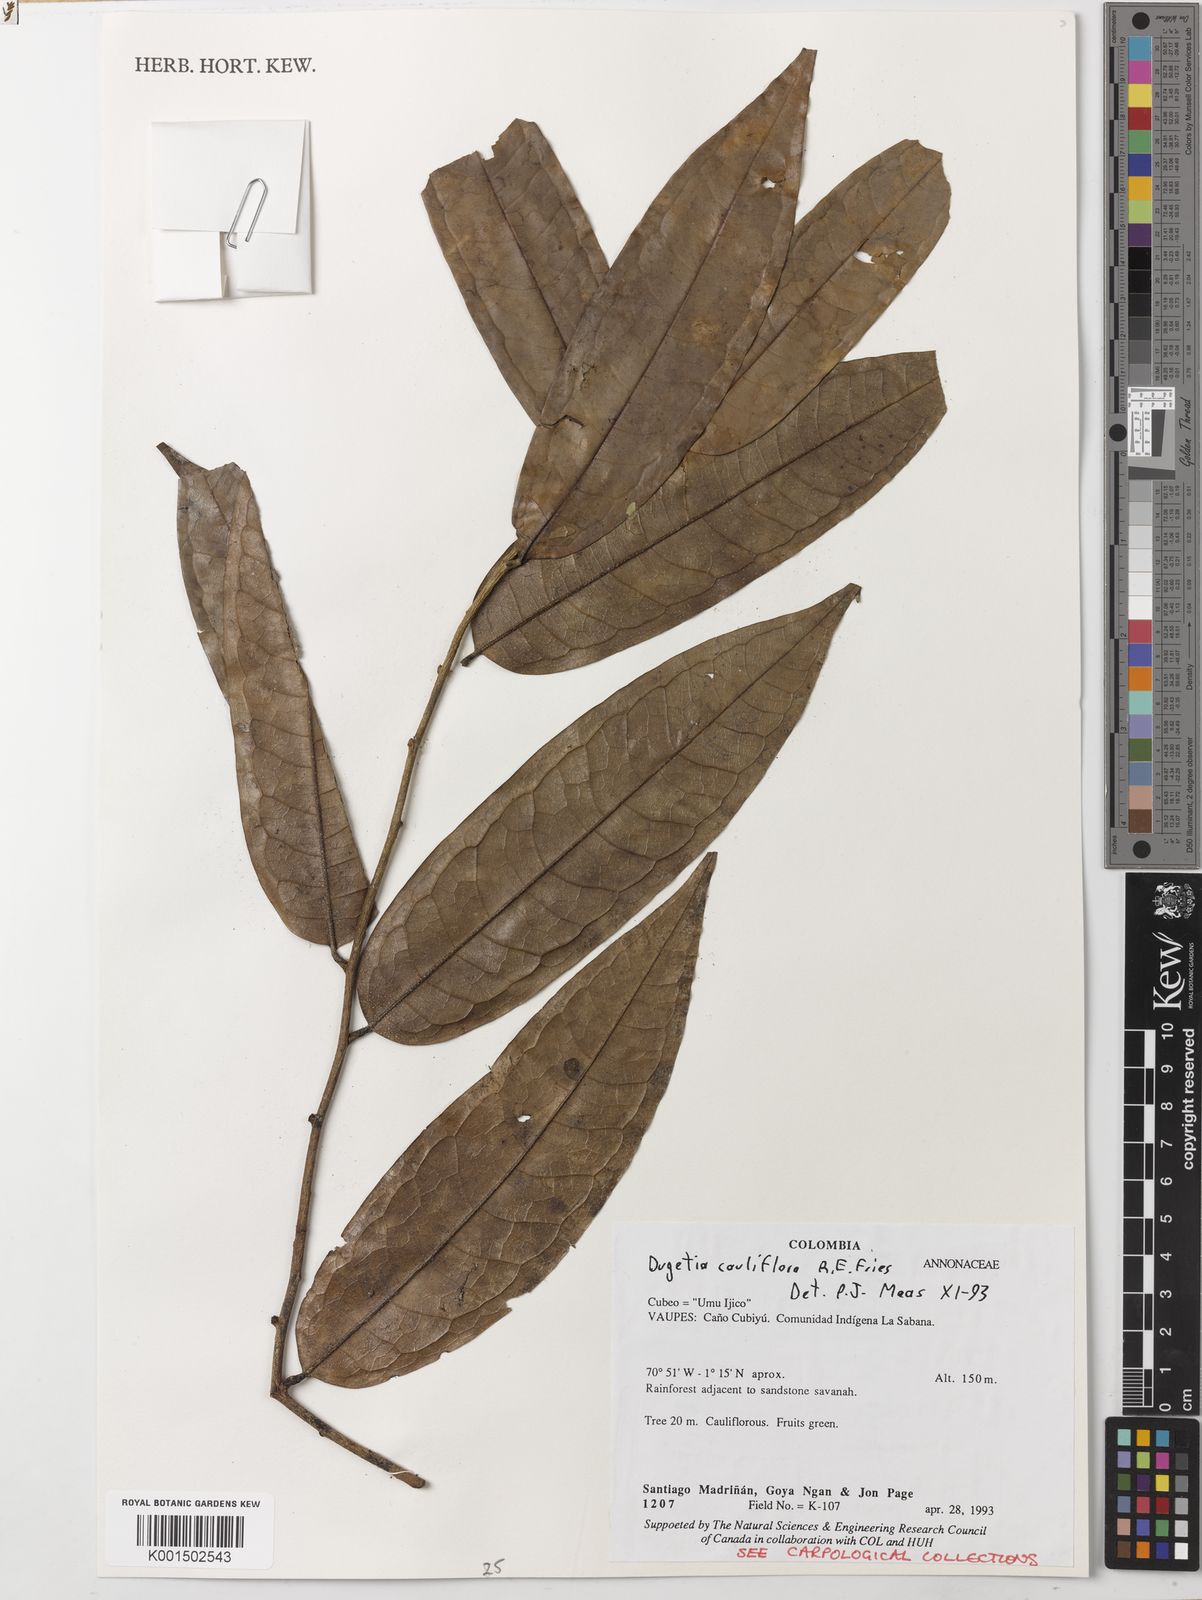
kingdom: Plantae
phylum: Tracheophyta
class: Magnoliopsida
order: Magnoliales
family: Annonaceae
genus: Duguetia
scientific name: Duguetia cauliflora
